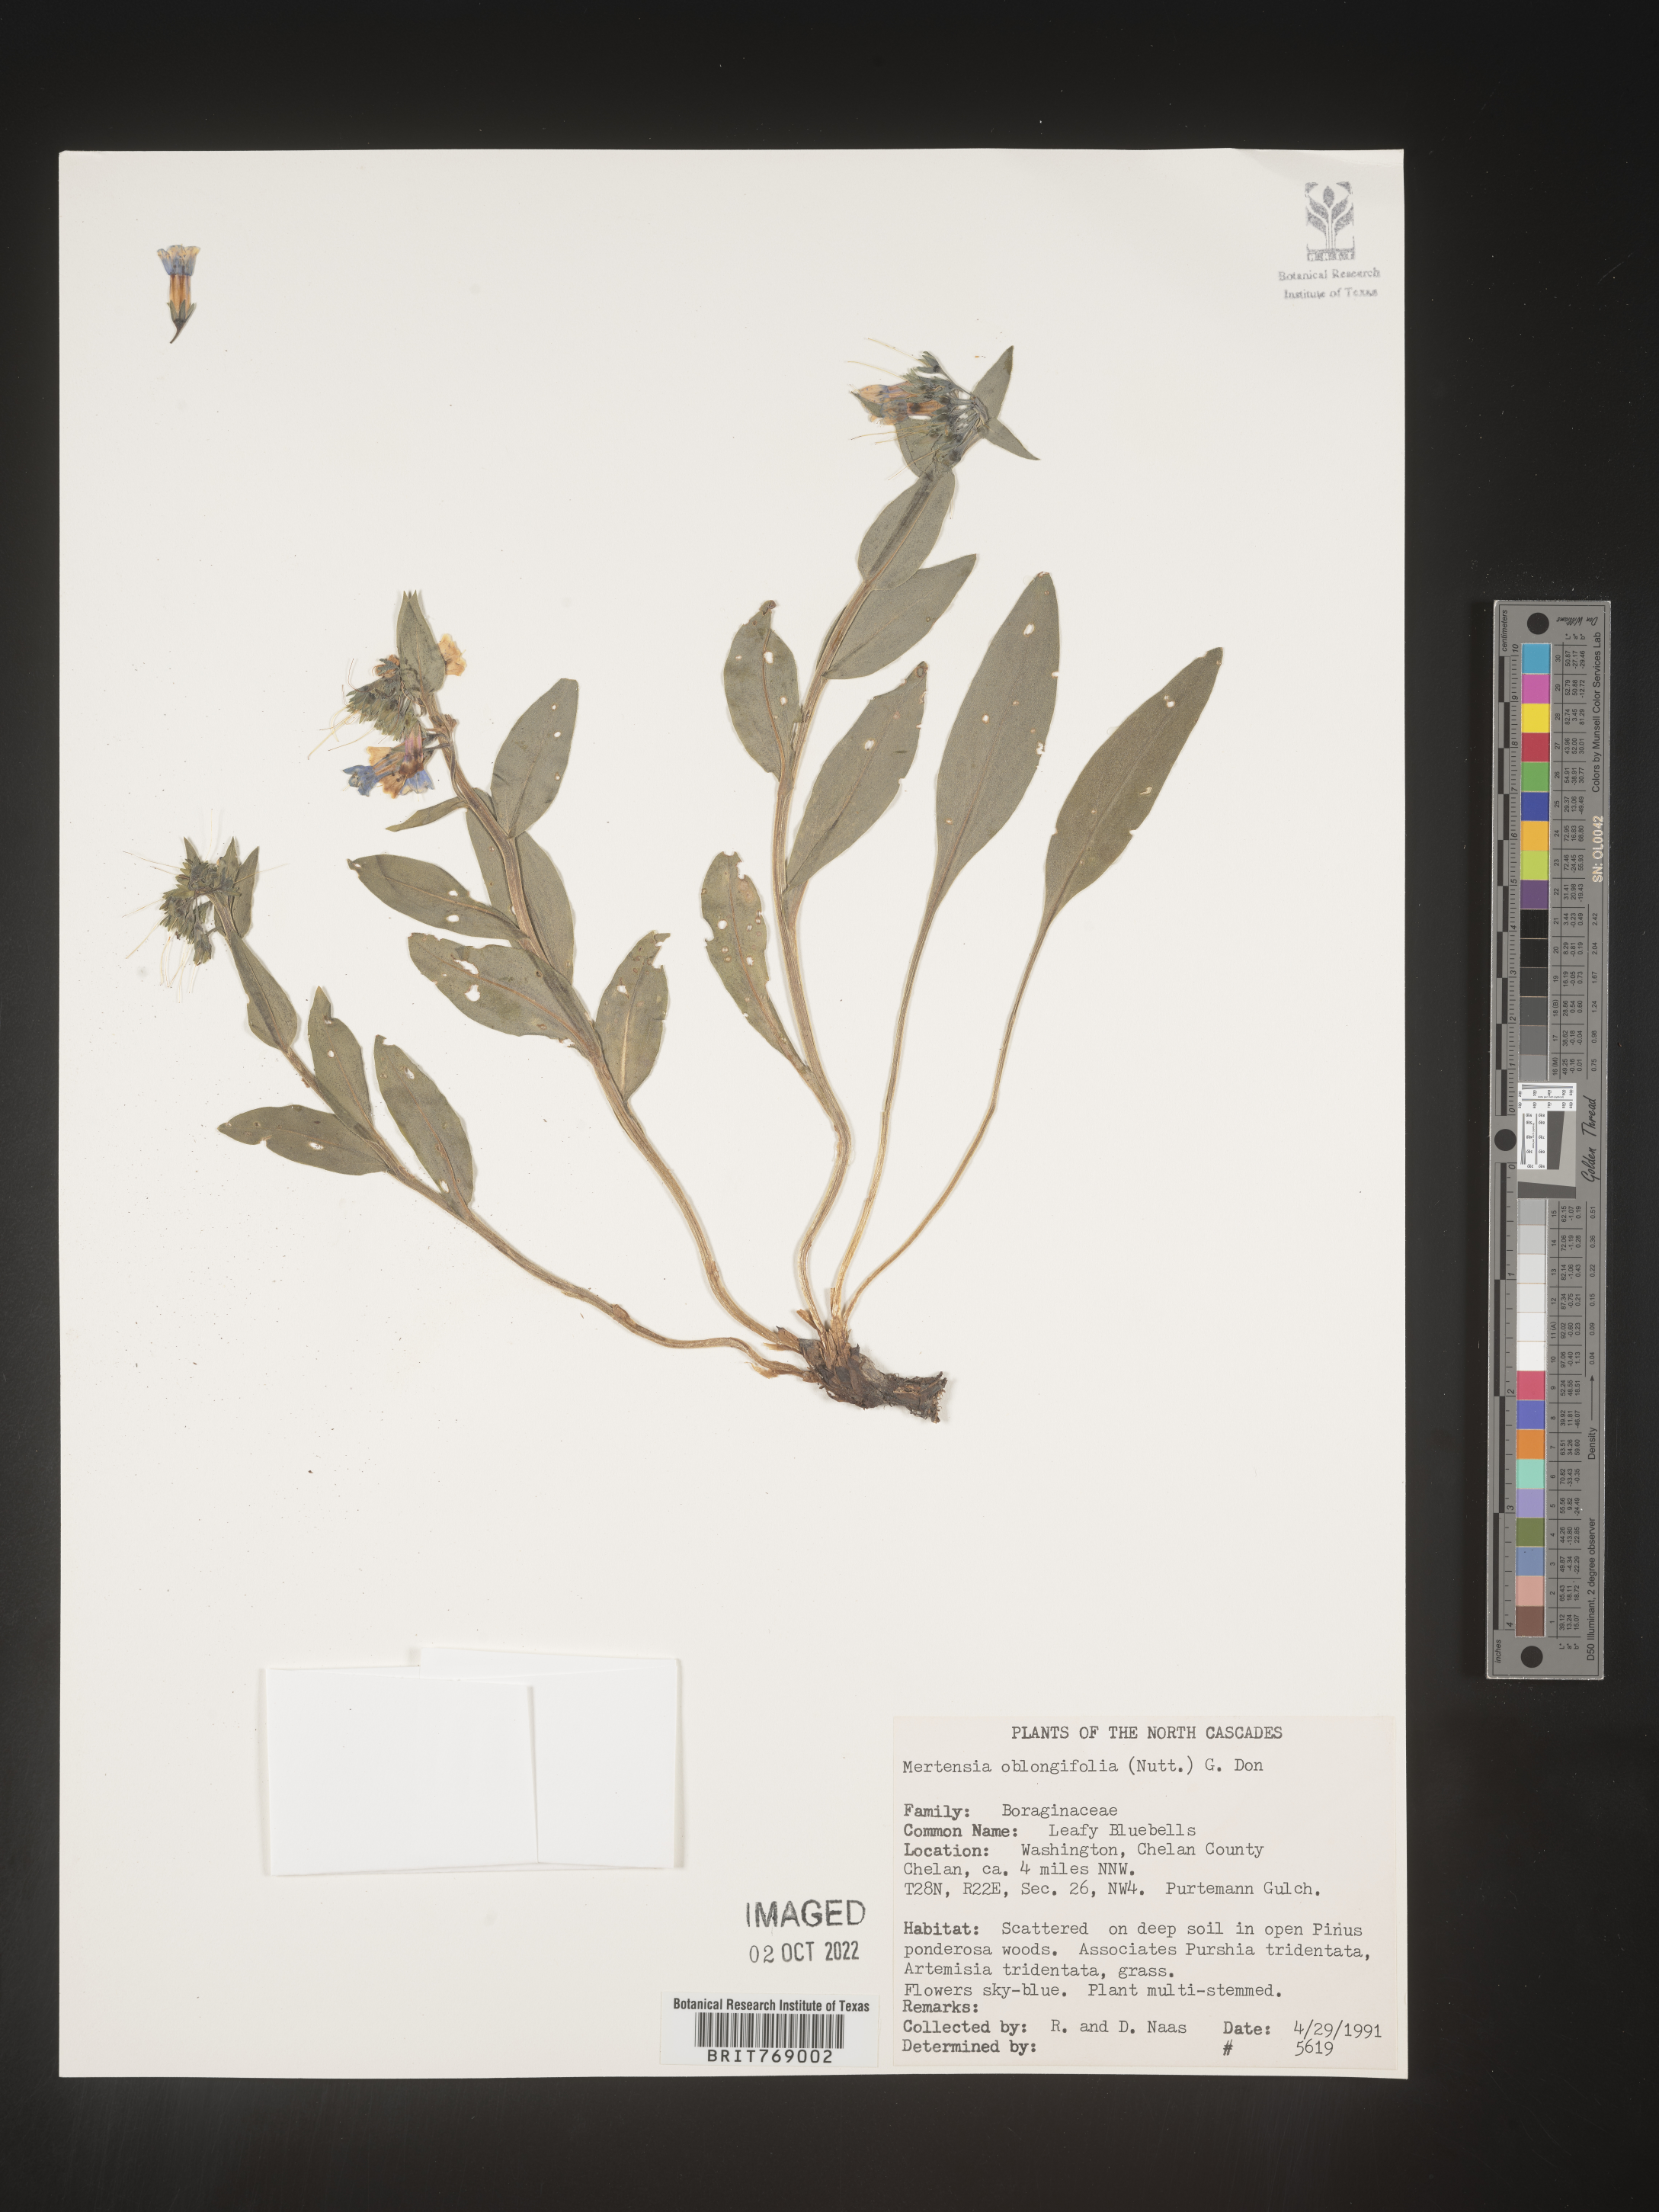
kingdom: Plantae
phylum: Tracheophyta
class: Magnoliopsida
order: Boraginales
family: Boraginaceae
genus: Mertensia
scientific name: Mertensia
